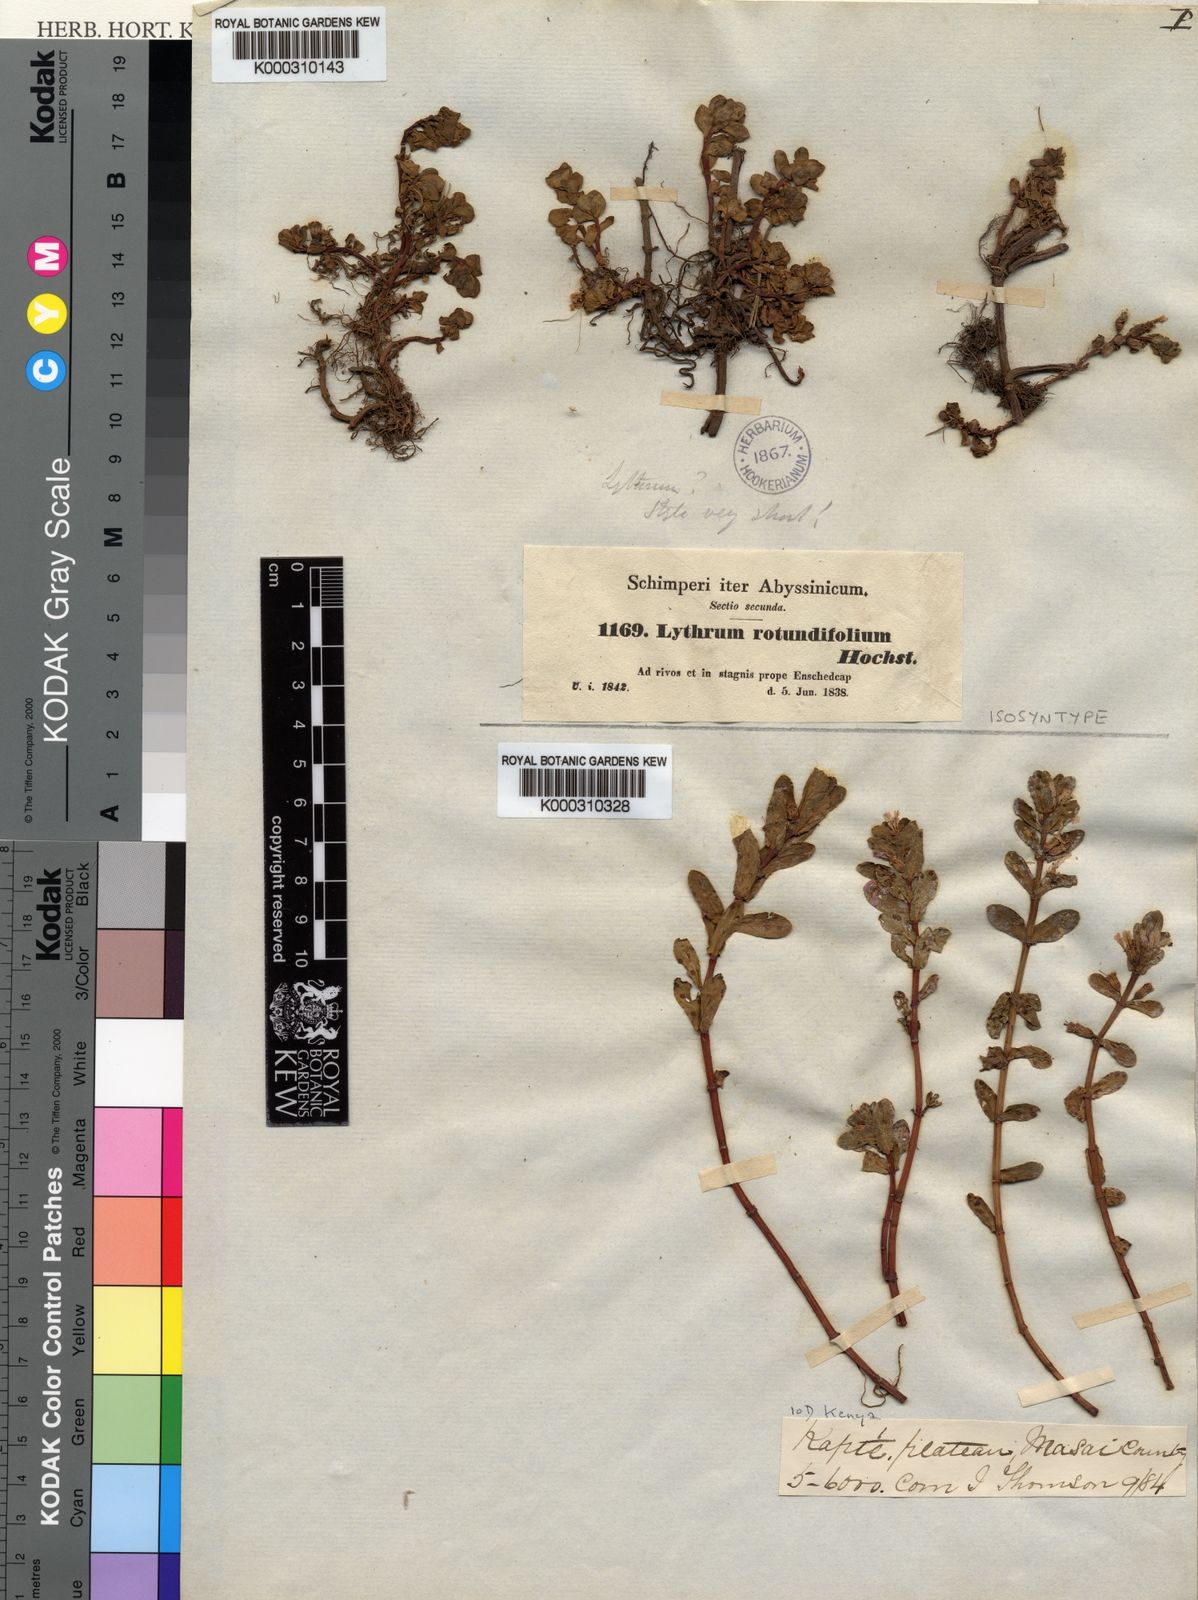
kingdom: Plantae
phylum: Tracheophyta
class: Magnoliopsida
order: Myrtales
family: Lythraceae
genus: Lythrum
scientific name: Lythrum rotundifolium
